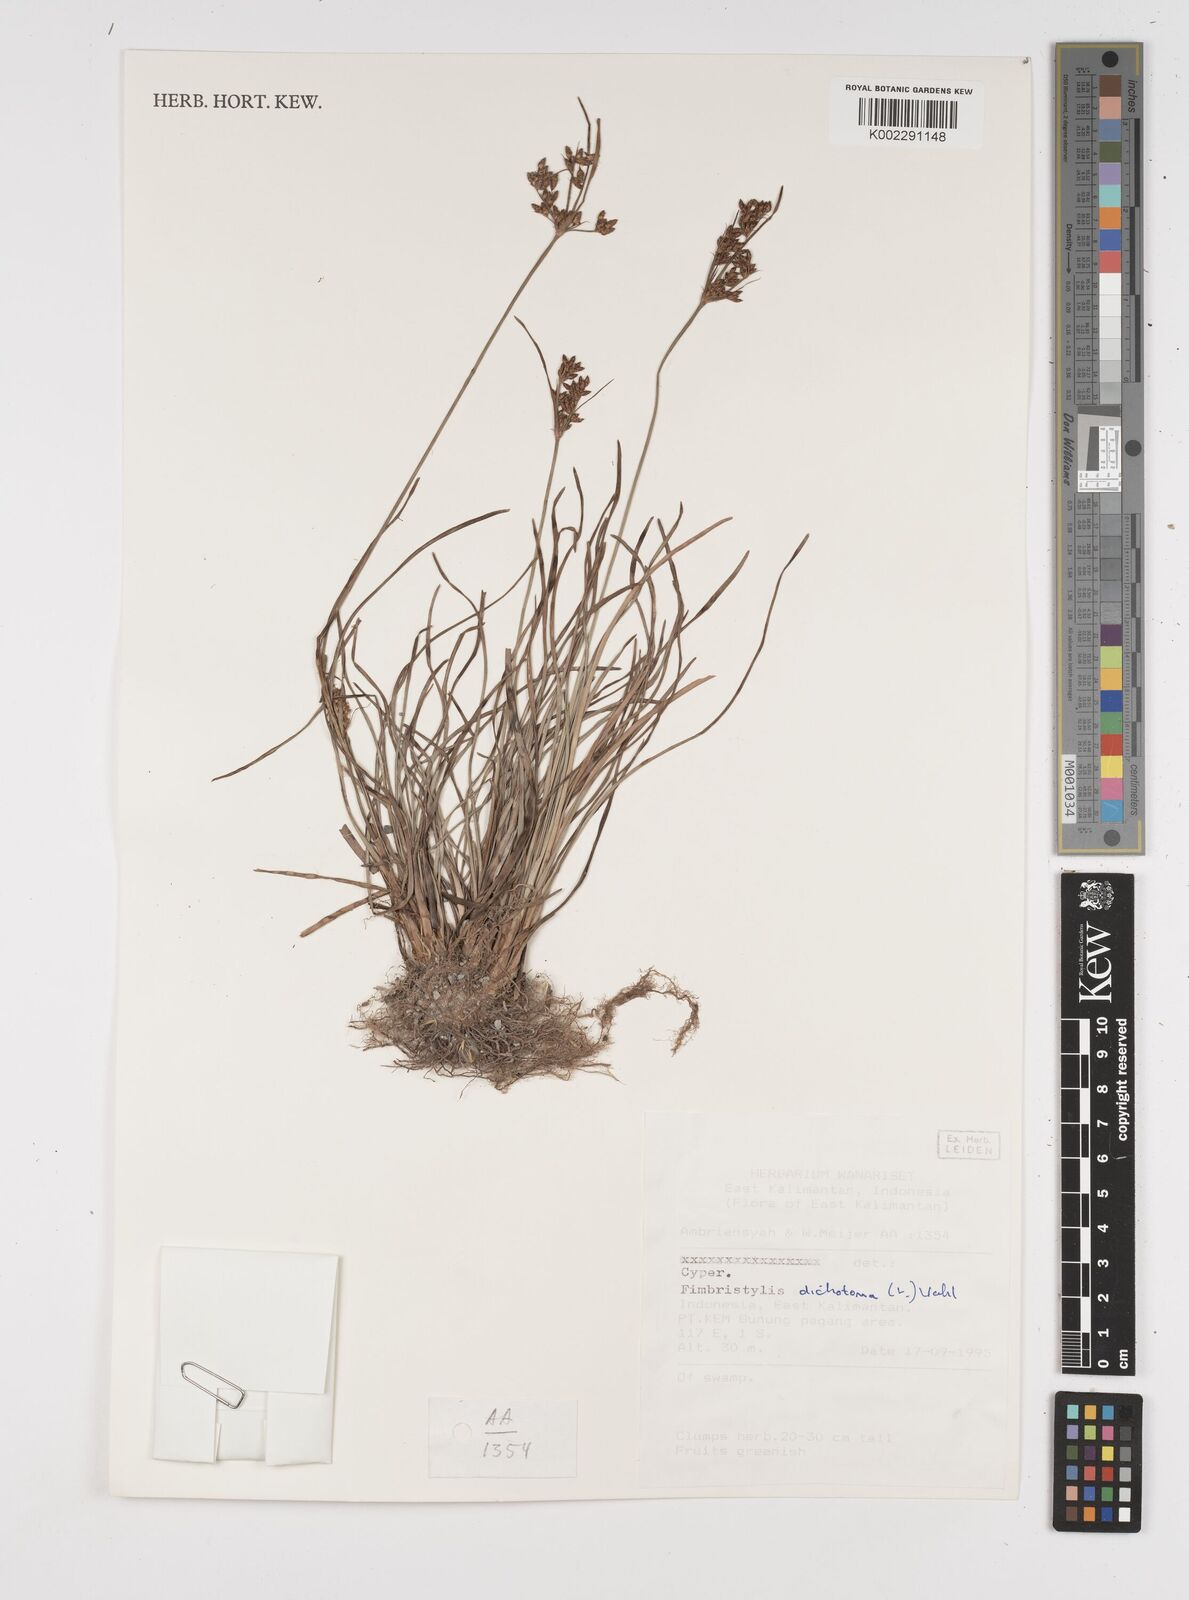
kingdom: Plantae
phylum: Tracheophyta
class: Liliopsida
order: Poales
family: Cyperaceae
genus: Fimbristylis
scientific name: Fimbristylis dichotoma
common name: Forked fimbry
